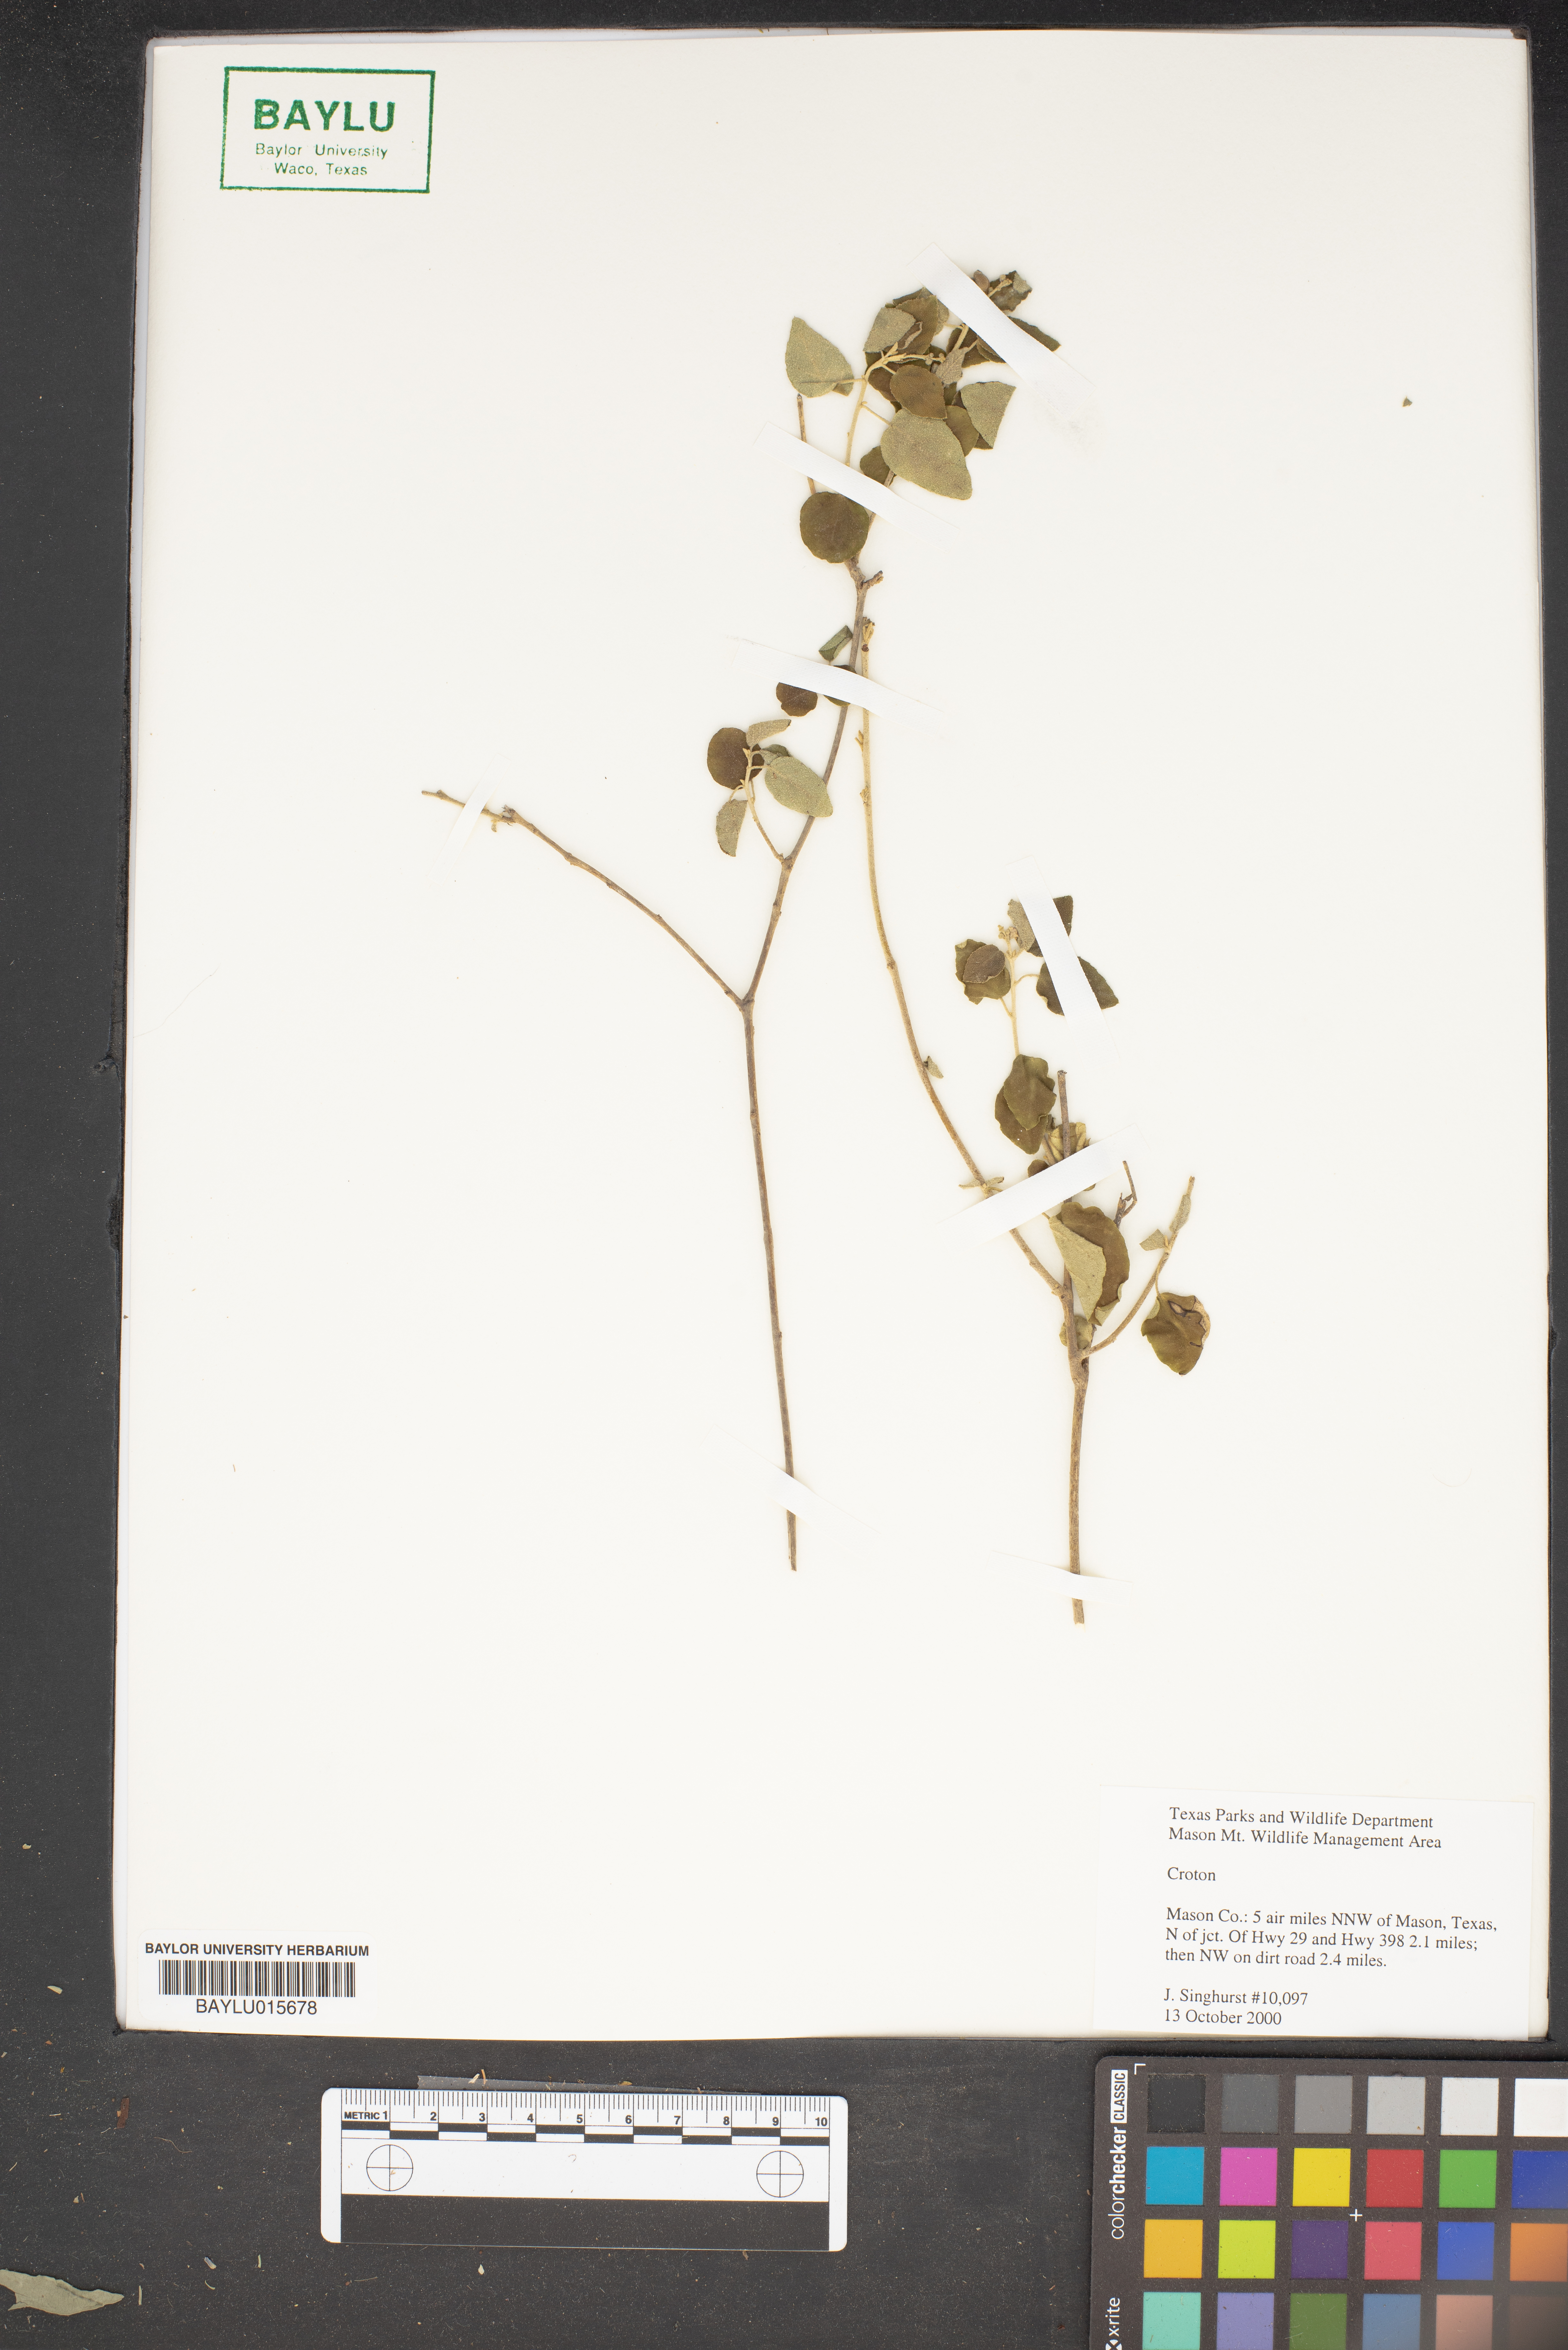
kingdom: Plantae
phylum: Tracheophyta
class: Magnoliopsida
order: Malpighiales
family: Euphorbiaceae
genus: Croton
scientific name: Croton
